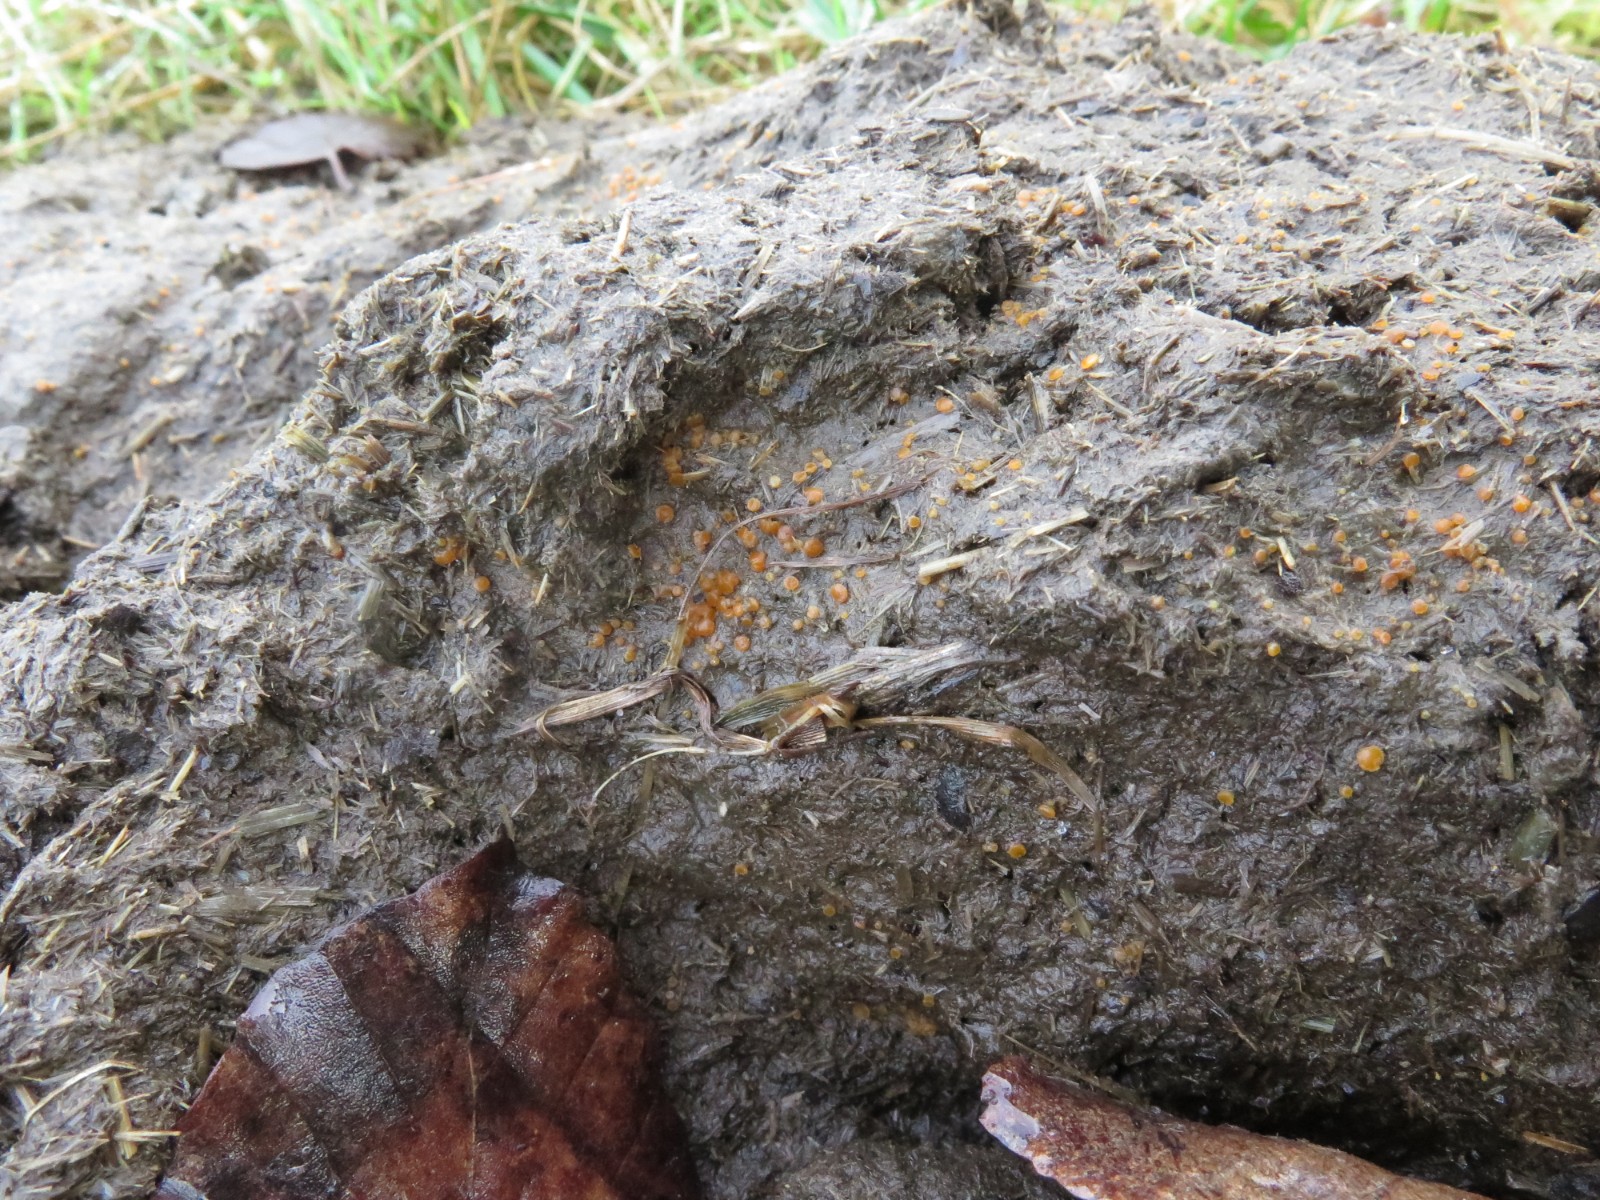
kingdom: Fungi
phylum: Ascomycota
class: Pezizomycetes
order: Pezizales
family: Pyronemataceae
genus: Cheilymenia
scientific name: Cheilymenia granulata
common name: møgbæger
